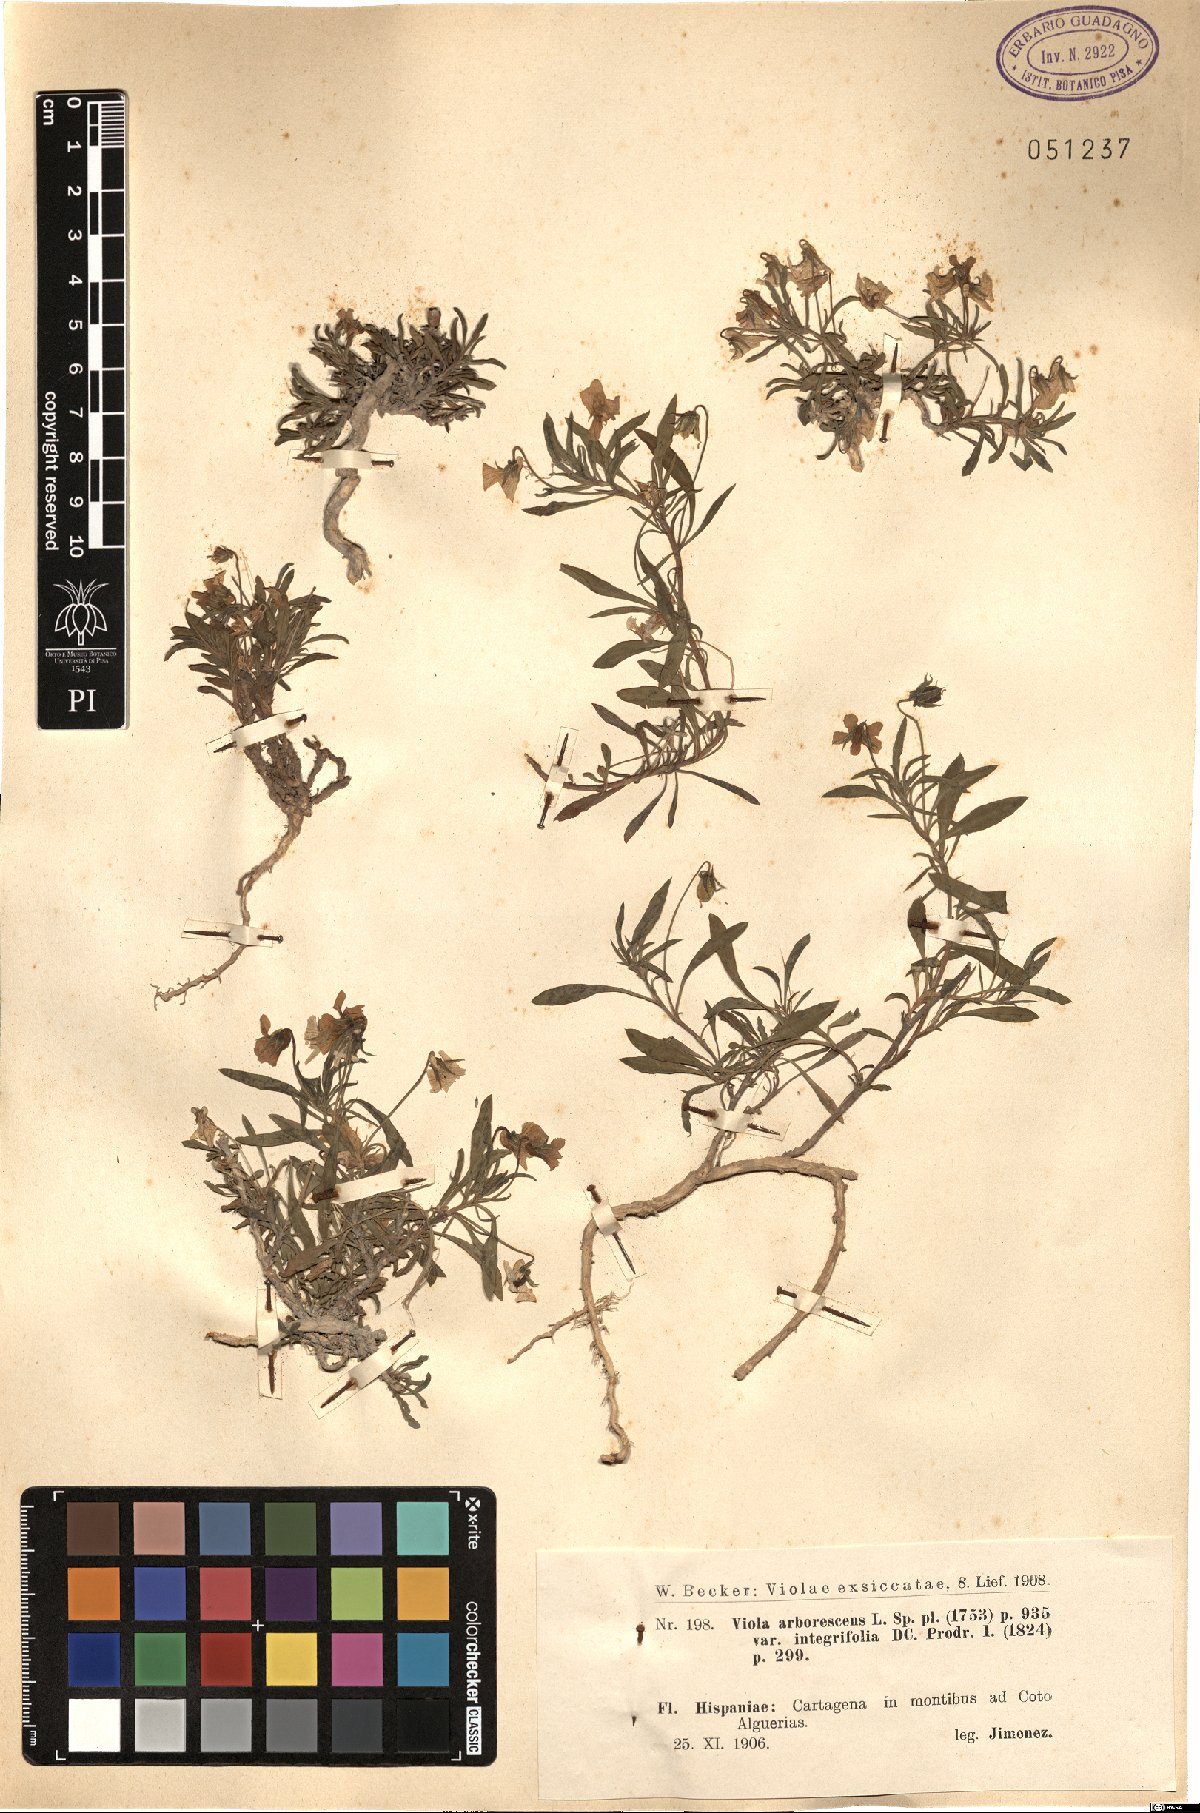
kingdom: Plantae
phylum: Tracheophyta
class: Magnoliopsida
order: Malpighiales
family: Violaceae
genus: Viola
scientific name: Viola arborescens
